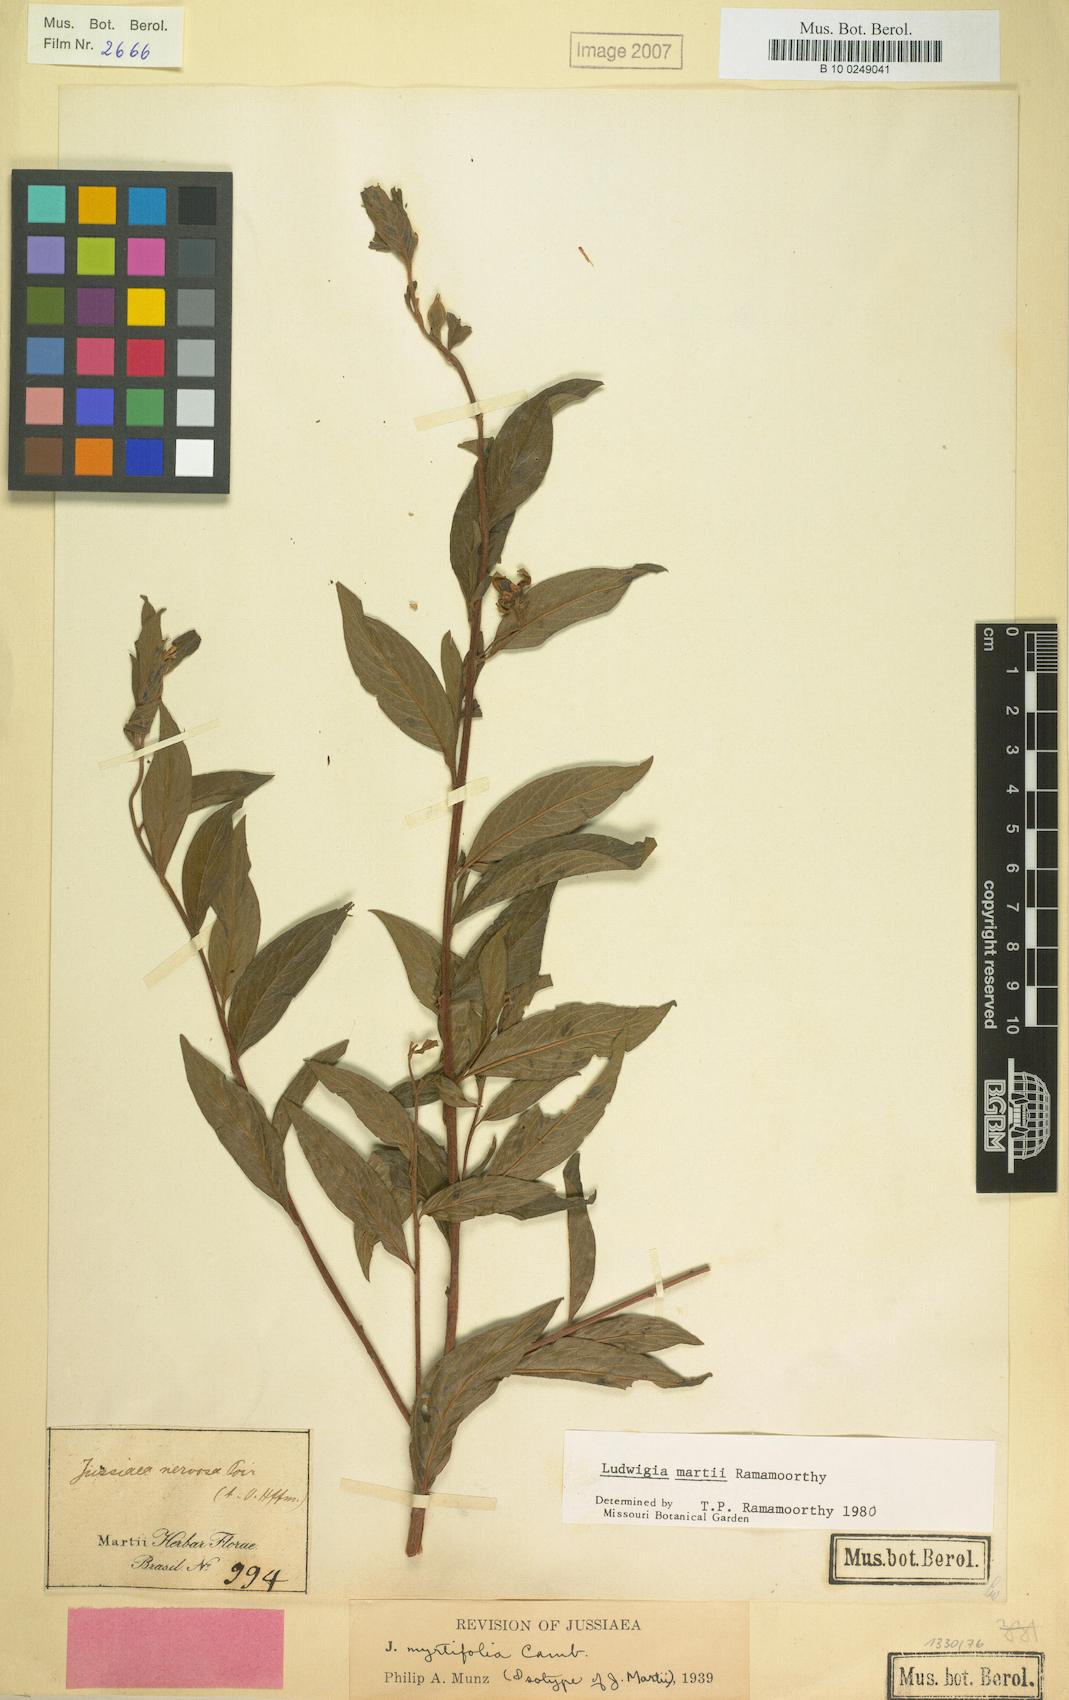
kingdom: Plantae
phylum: Tracheophyta
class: Magnoliopsida
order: Myrtales
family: Onagraceae
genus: Ludwigia
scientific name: Ludwigia martii
